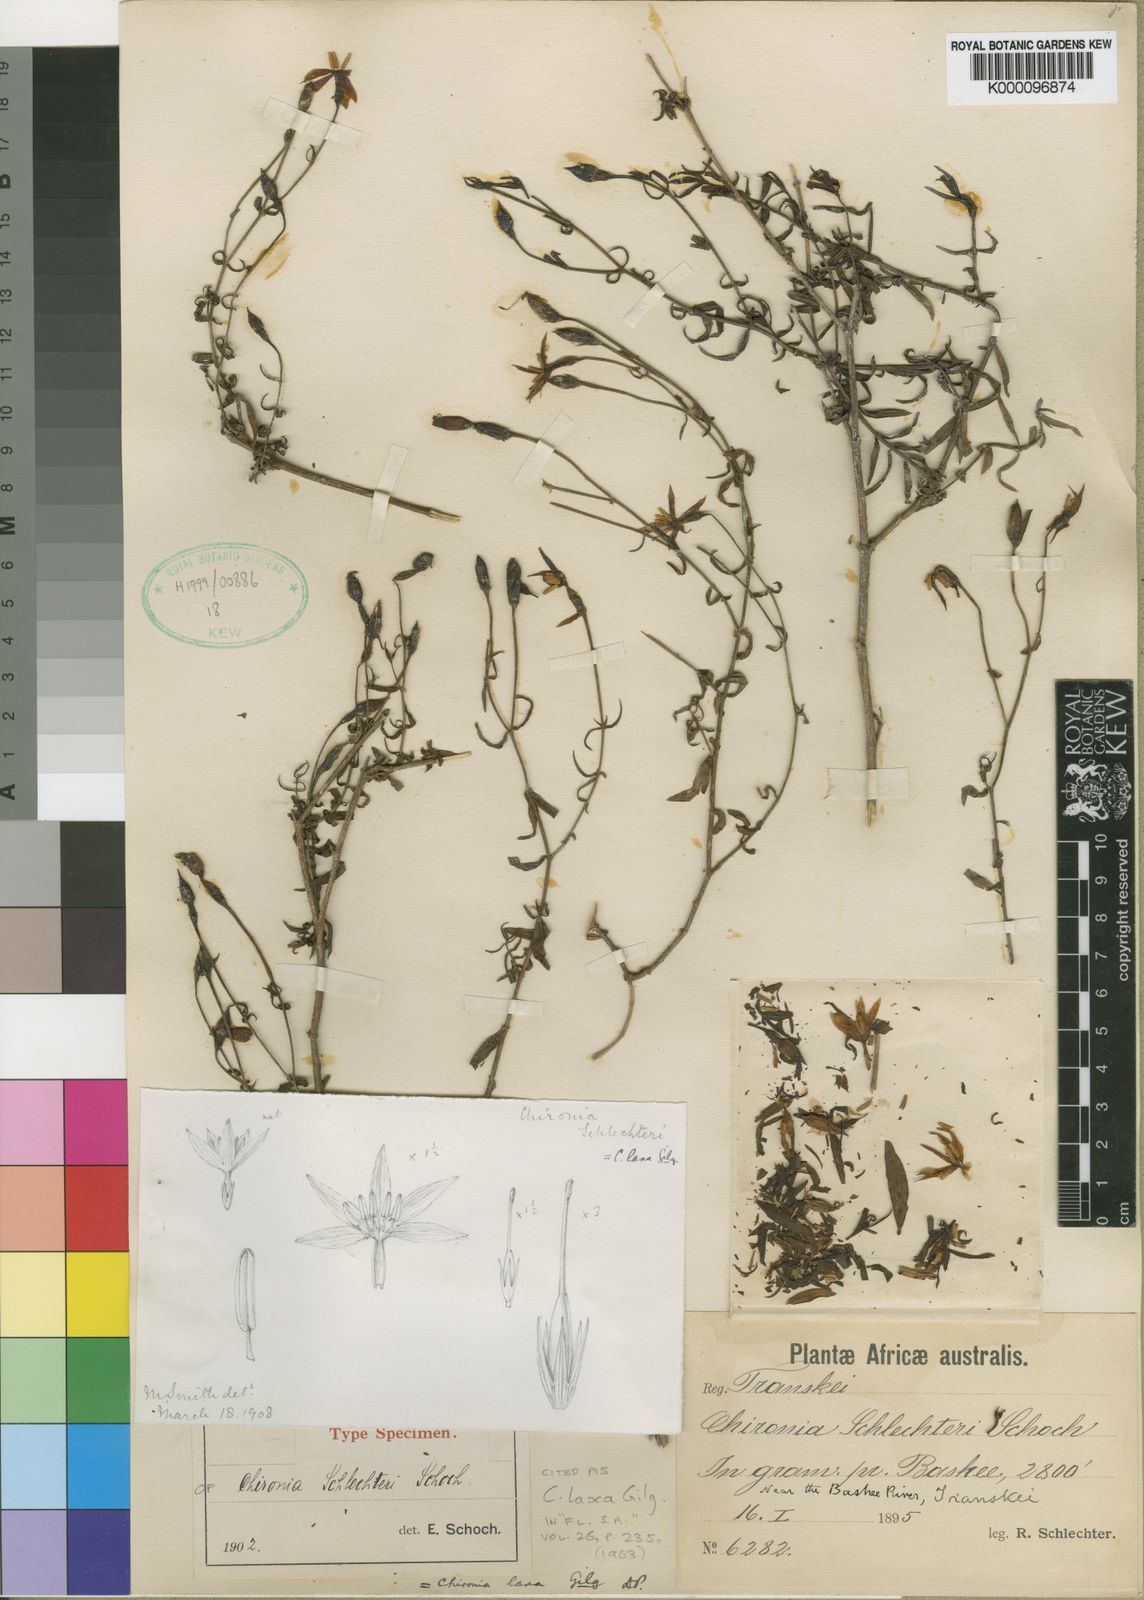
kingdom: Plantae
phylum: Tracheophyta
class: Magnoliopsida
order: Gentianales
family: Gentianaceae
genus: Chironia
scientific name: Chironia laxa
